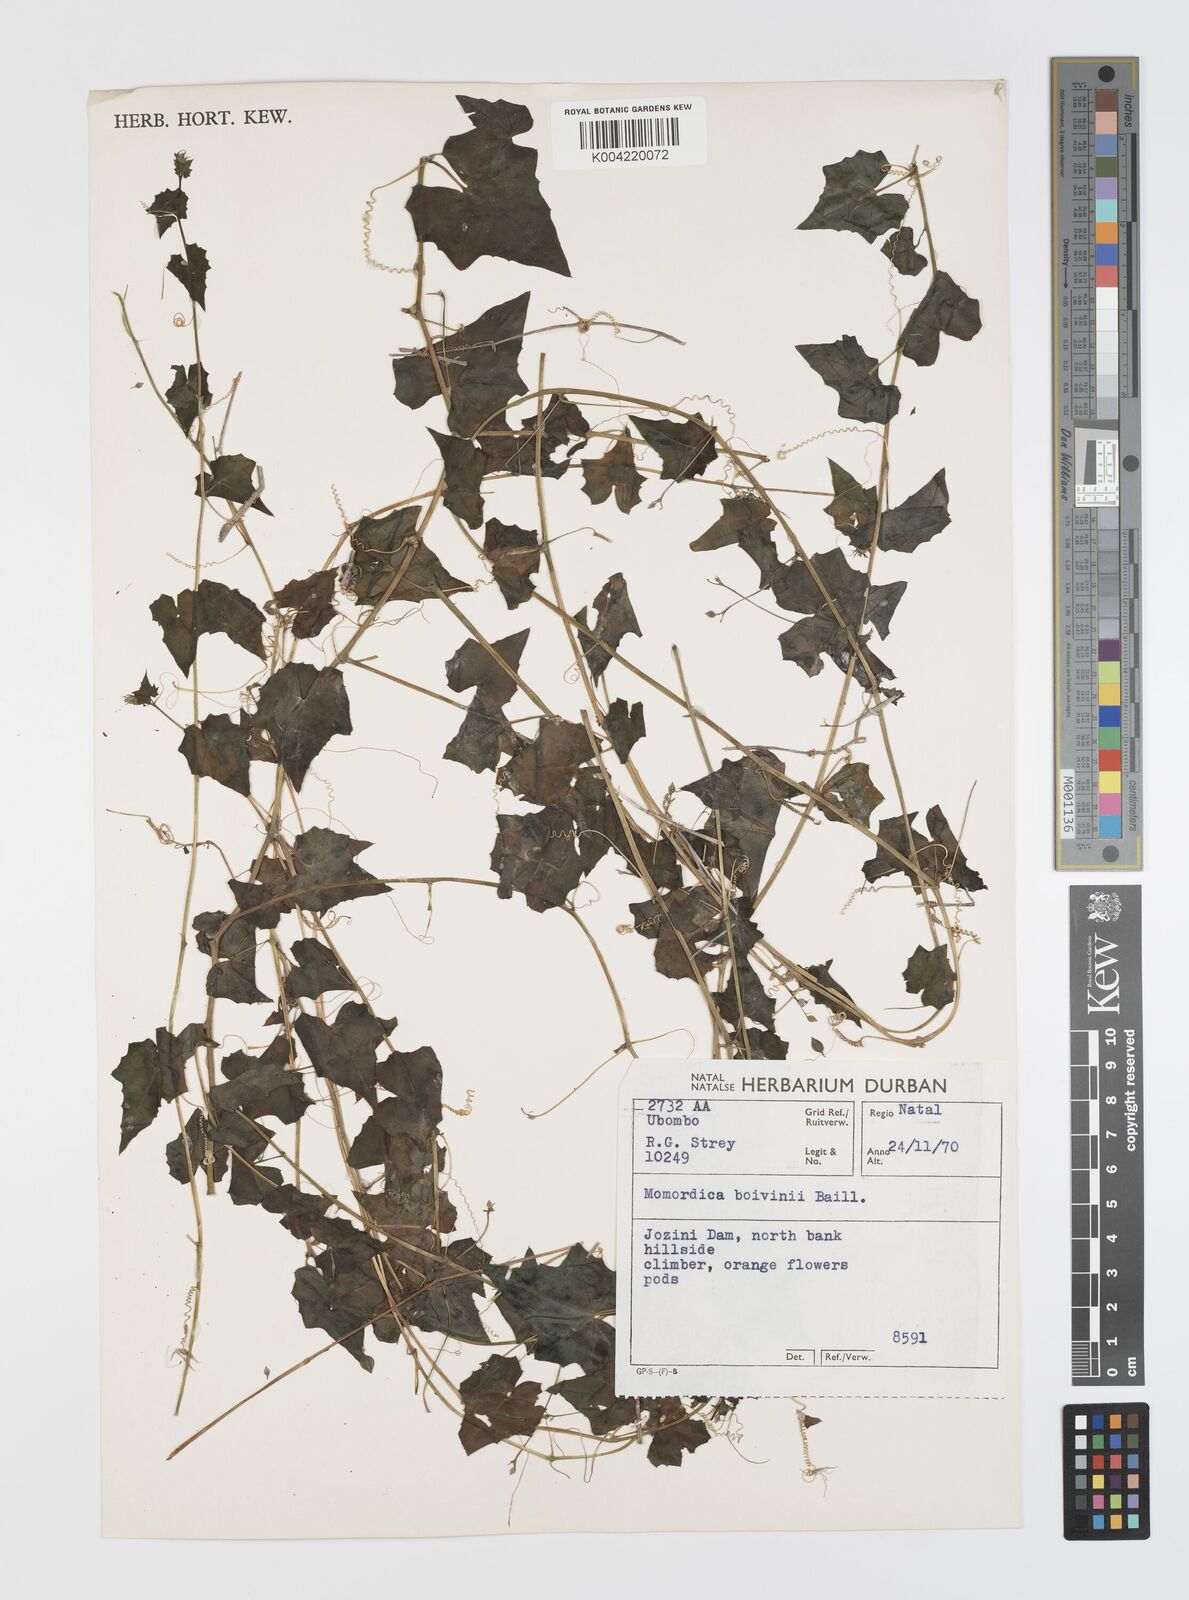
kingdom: Plantae
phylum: Tracheophyta
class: Magnoliopsida
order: Cucurbitales
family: Cucurbitaceae
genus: Momordica
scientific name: Momordica boivinii
